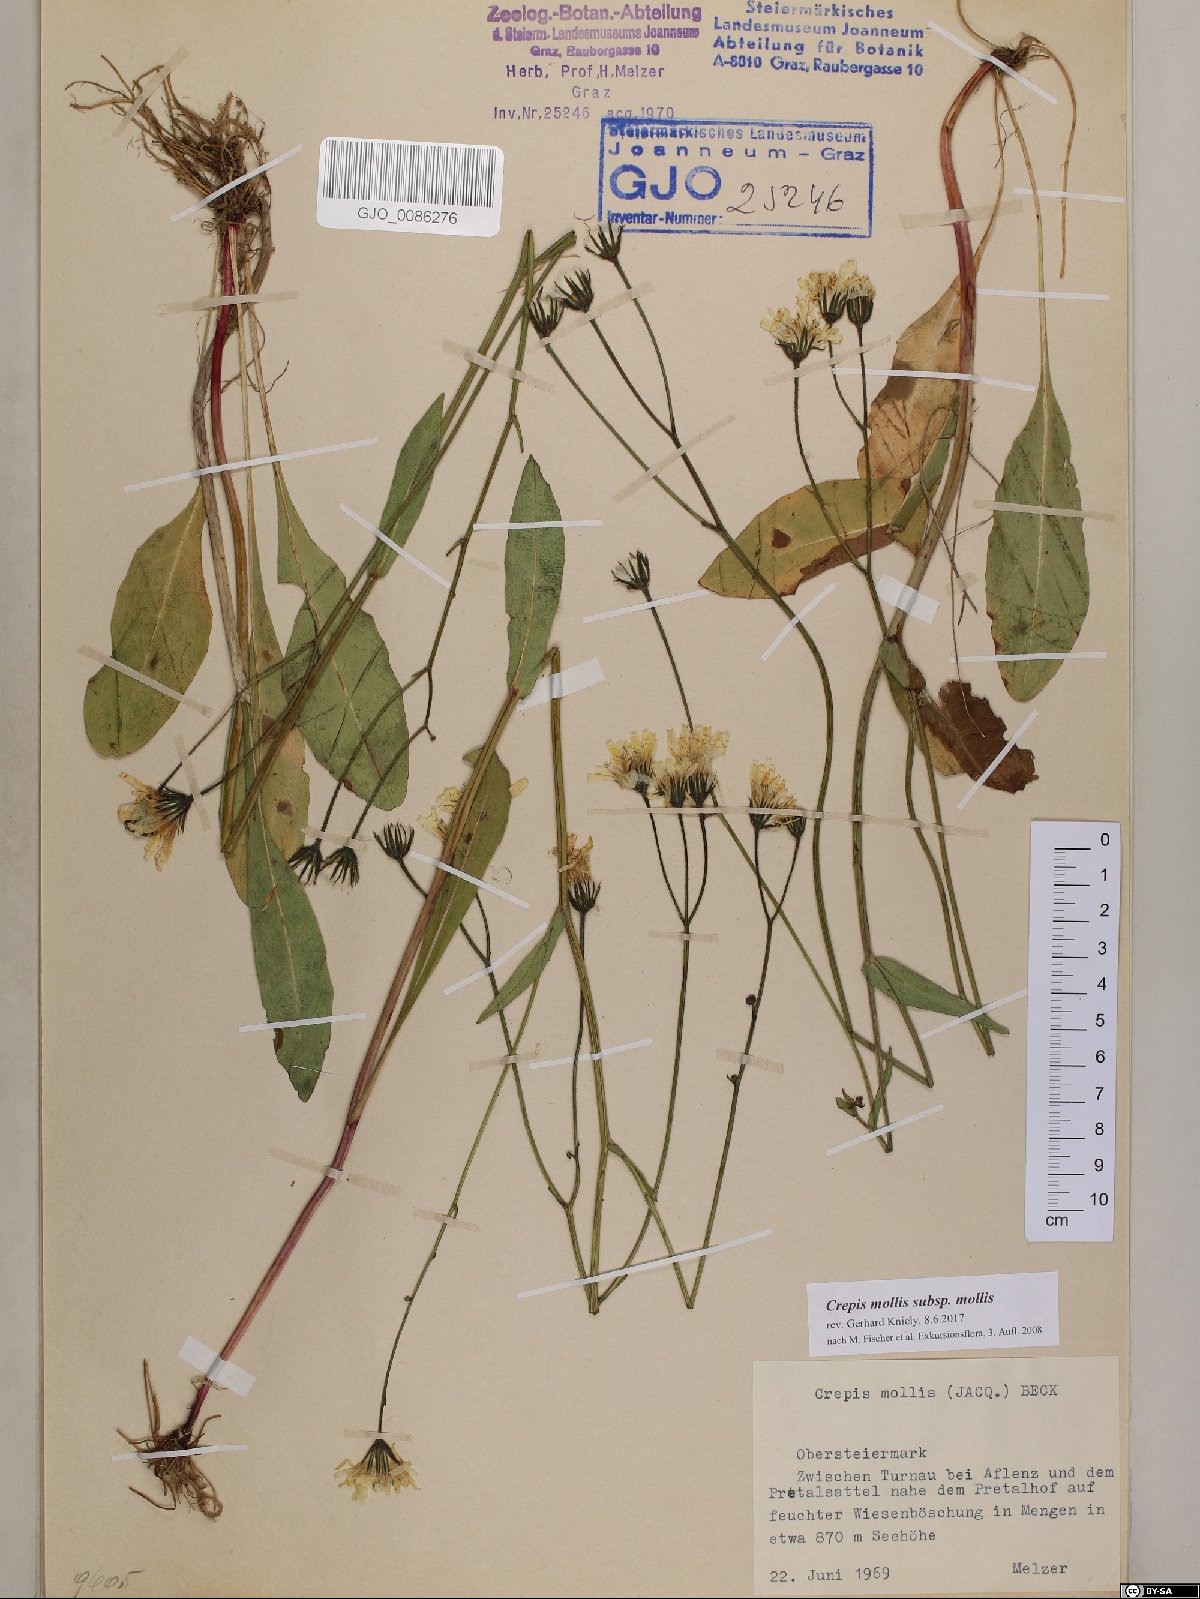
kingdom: Plantae
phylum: Tracheophyta
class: Magnoliopsida
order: Asterales
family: Asteraceae
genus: Crepis
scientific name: Crepis mollis
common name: Northern hawk's-beard
